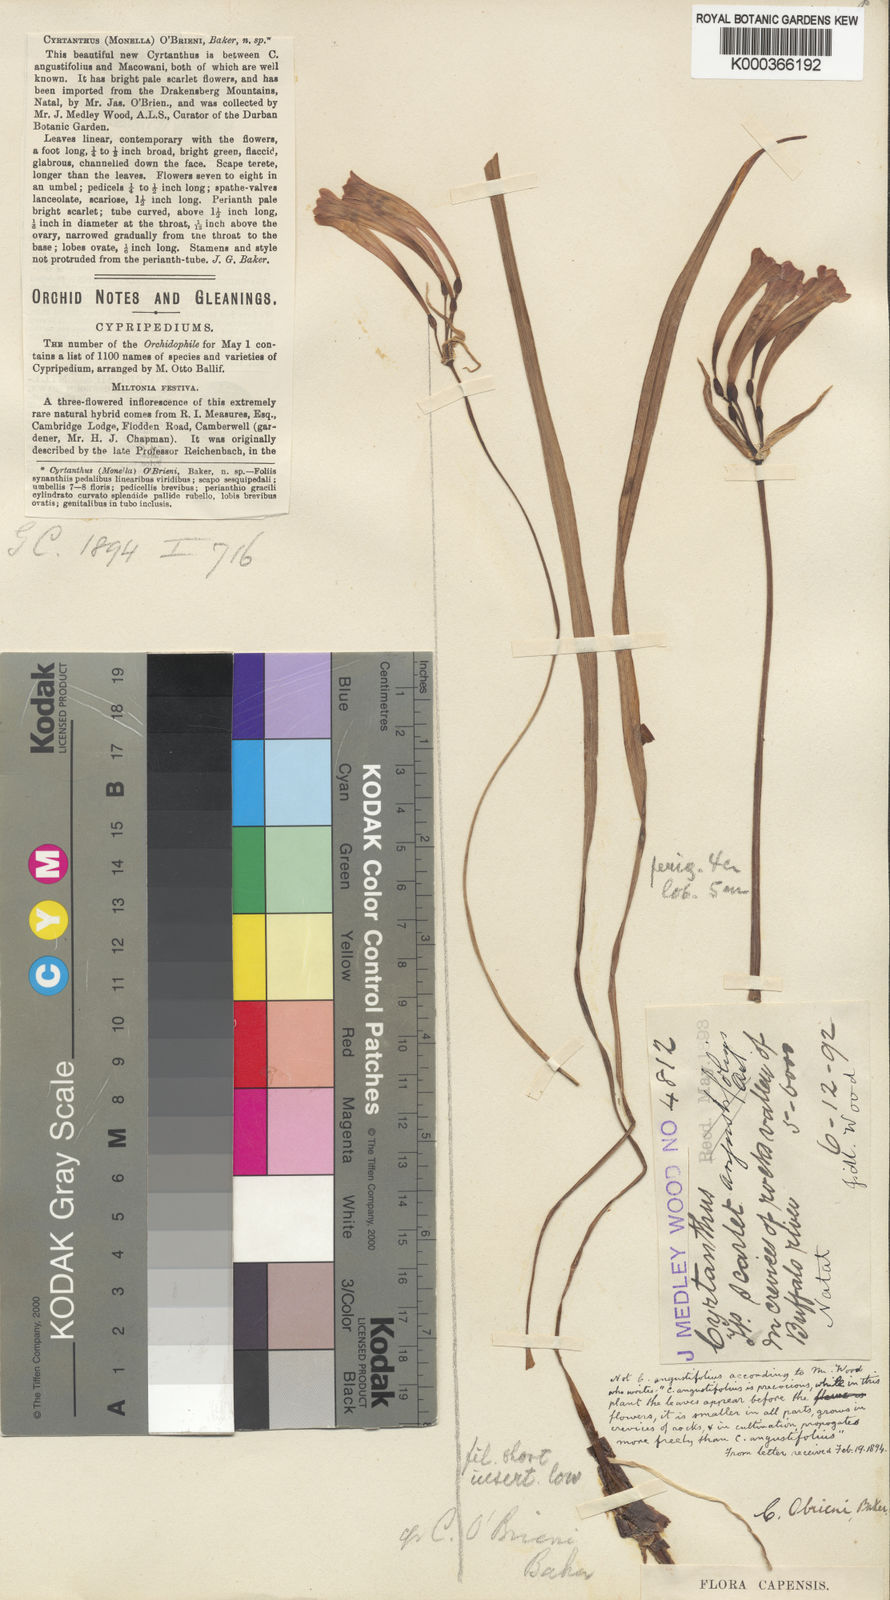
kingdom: Plantae
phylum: Tracheophyta
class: Liliopsida
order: Asparagales
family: Amaryllidaceae
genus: Cyrtanthus
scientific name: Cyrtanthus obrienii
